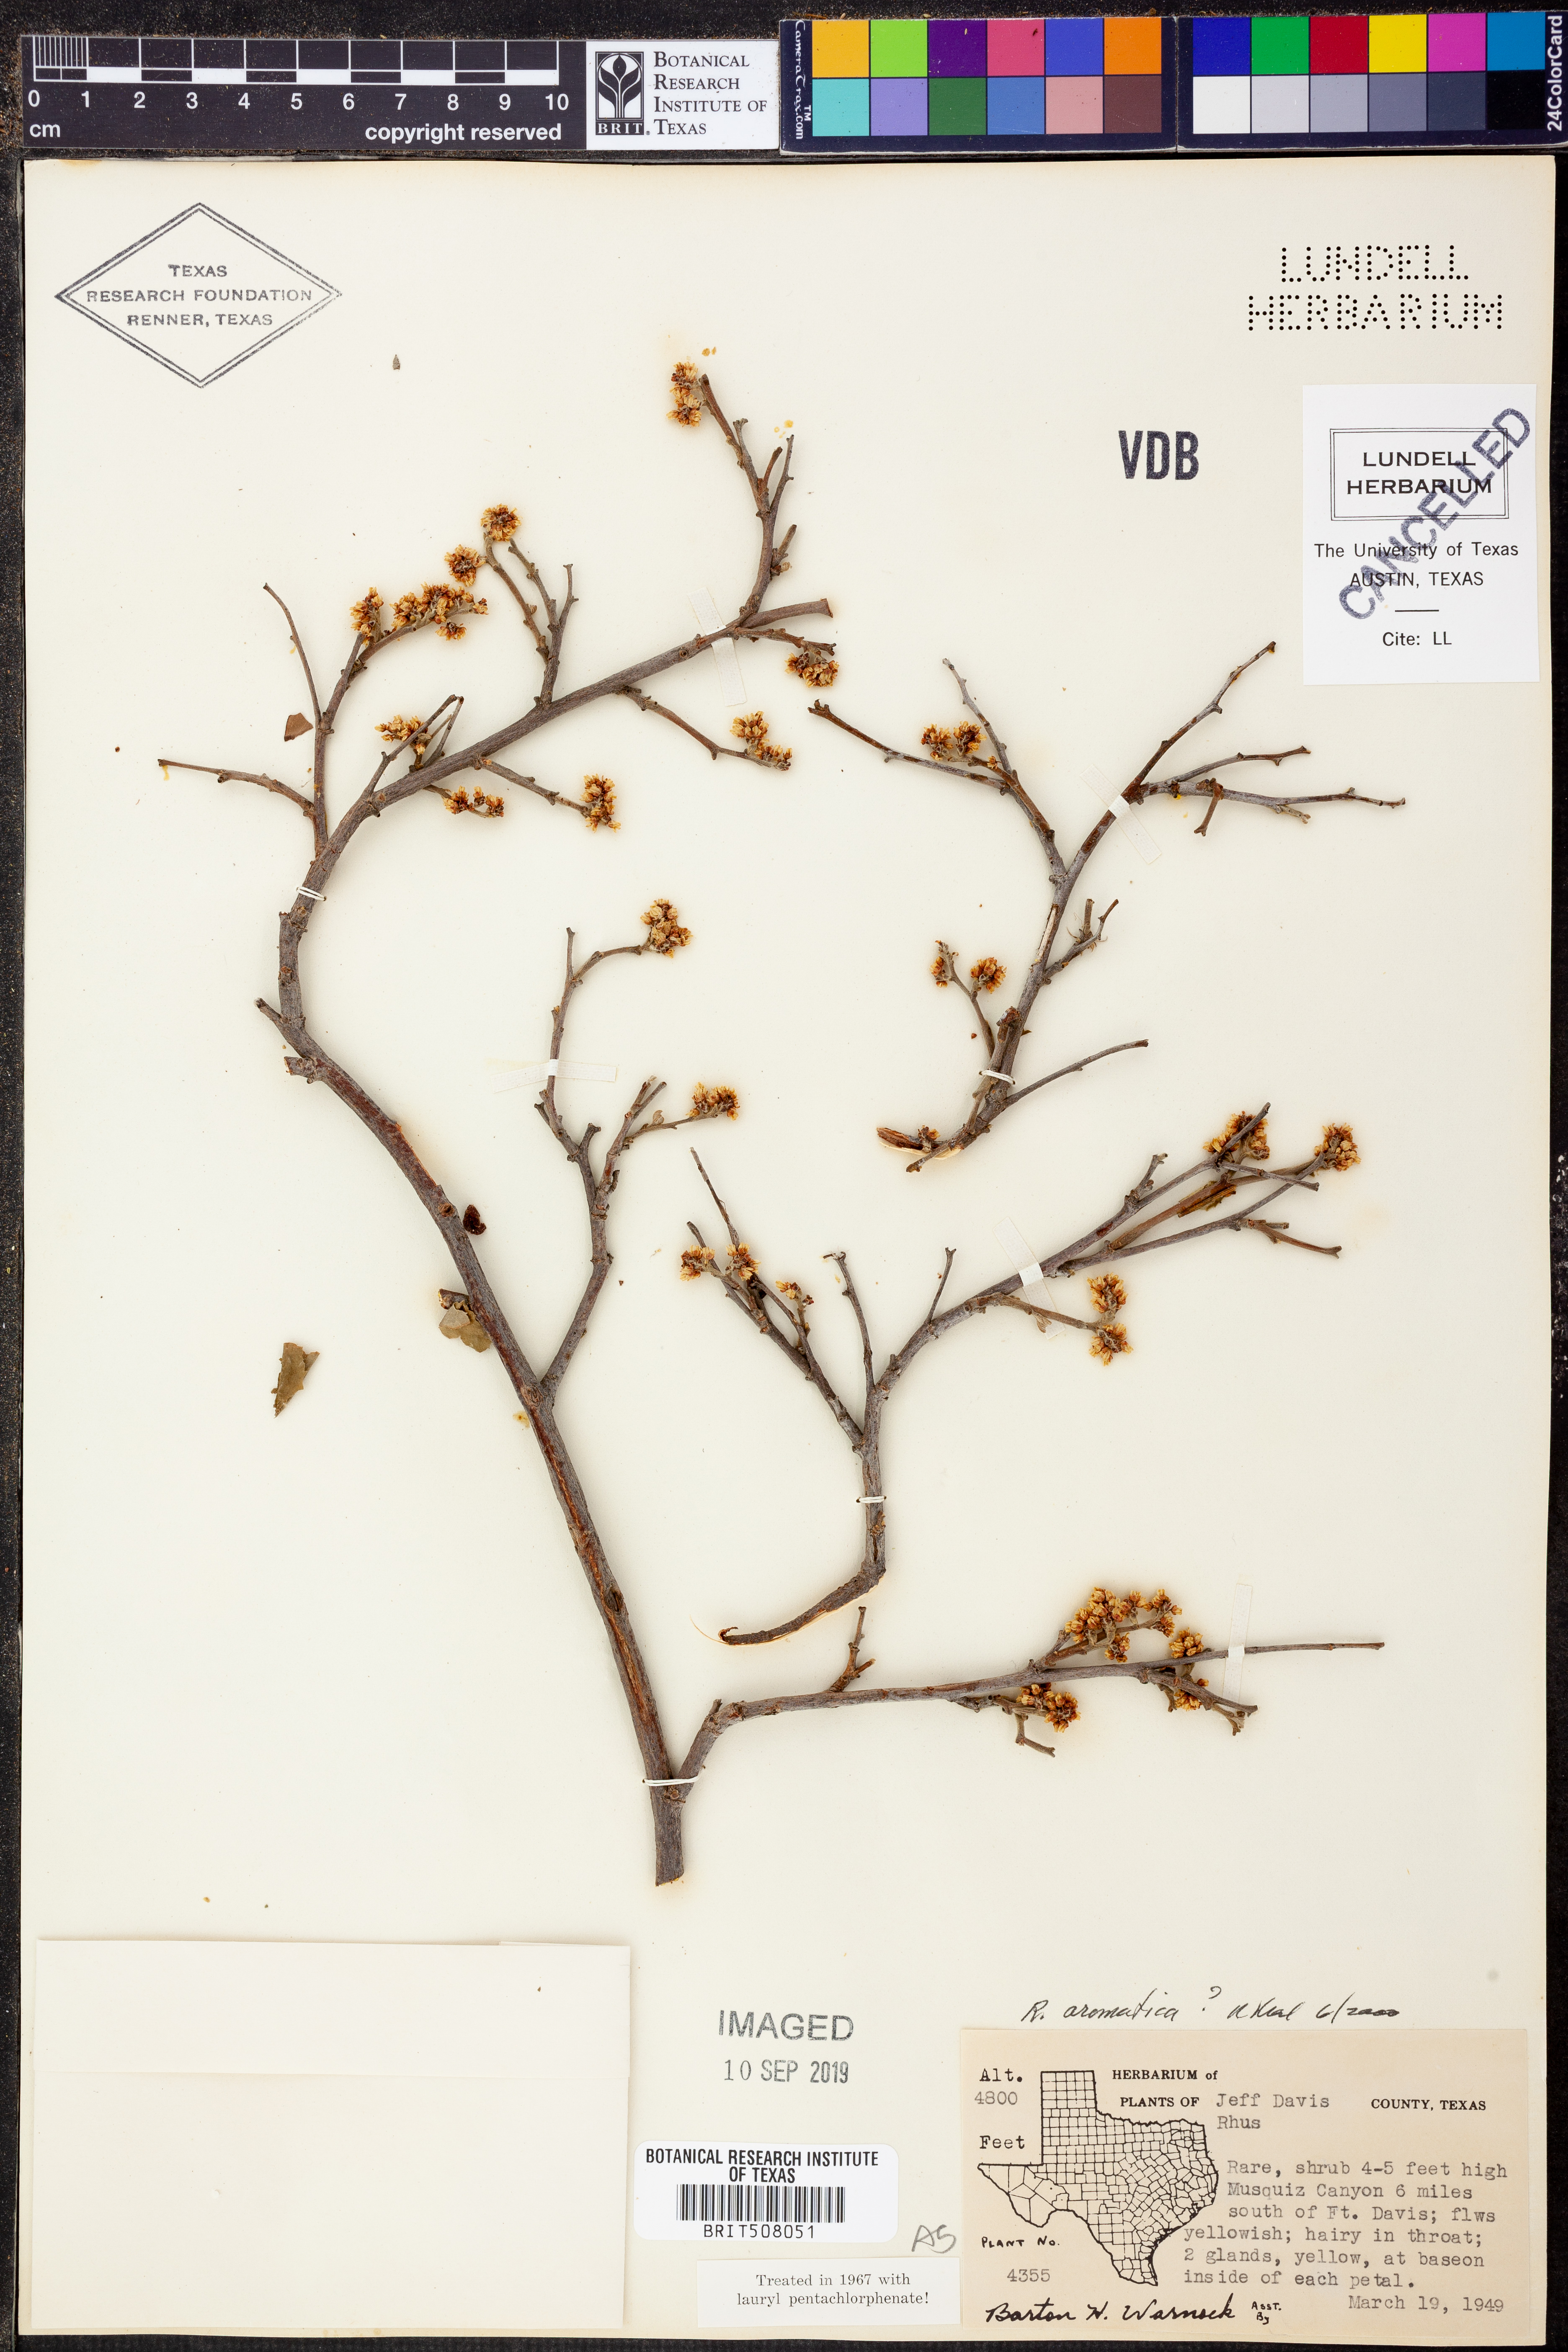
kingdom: Plantae
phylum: Tracheophyta
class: Magnoliopsida
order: Sapindales
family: Anacardiaceae
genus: Rhus
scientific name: Rhus aromatica
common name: Aromatic sumac
